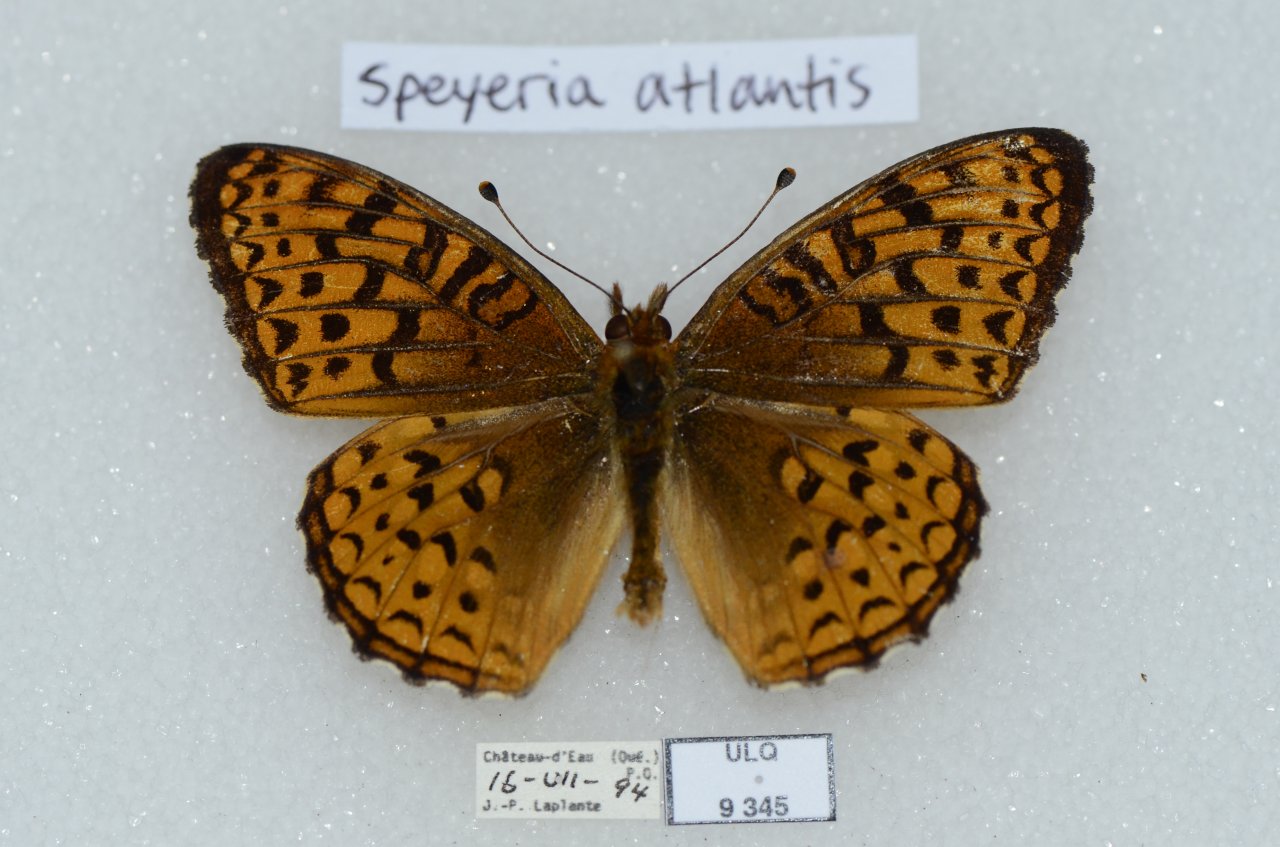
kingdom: Animalia
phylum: Arthropoda
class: Insecta
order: Lepidoptera
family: Nymphalidae
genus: Speyeria
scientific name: Speyeria atlantis
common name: Atlantis Fritillary
